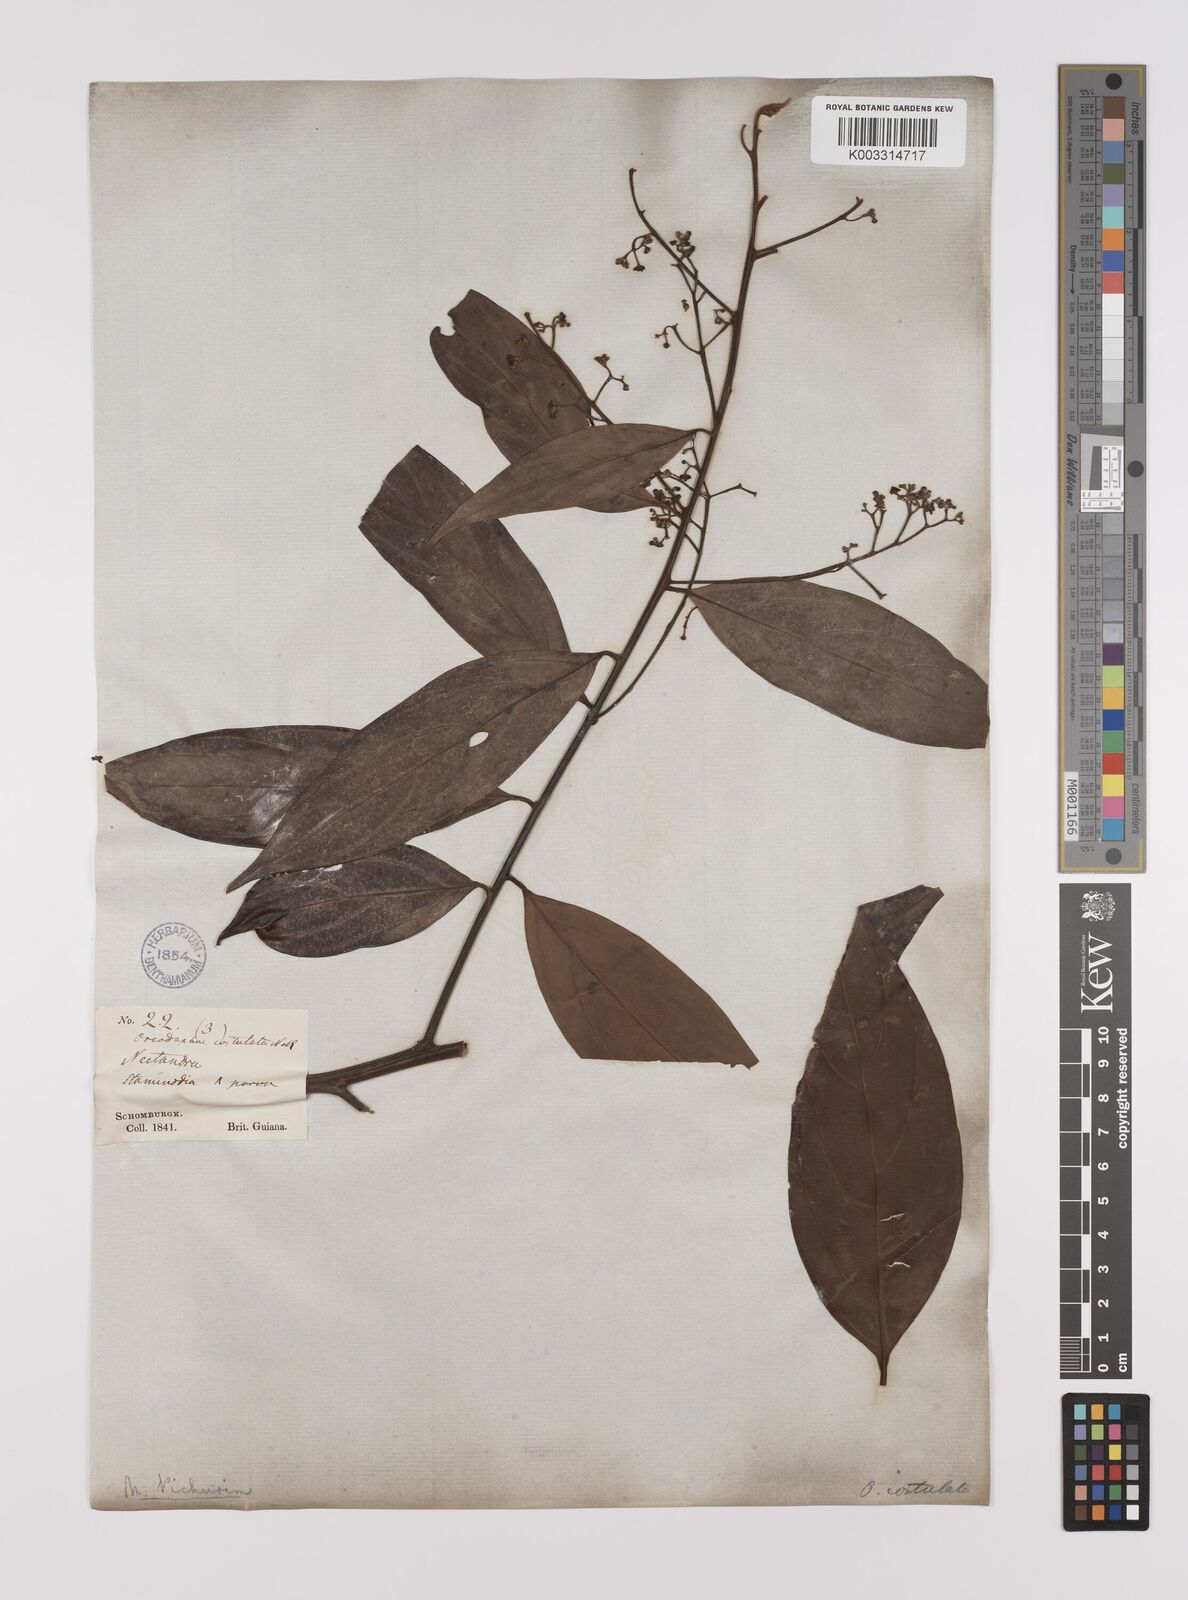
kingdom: Plantae
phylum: Tracheophyta
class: Magnoliopsida
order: Laurales
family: Lauraceae
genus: Nectandra
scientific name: Nectandra cuspidata
